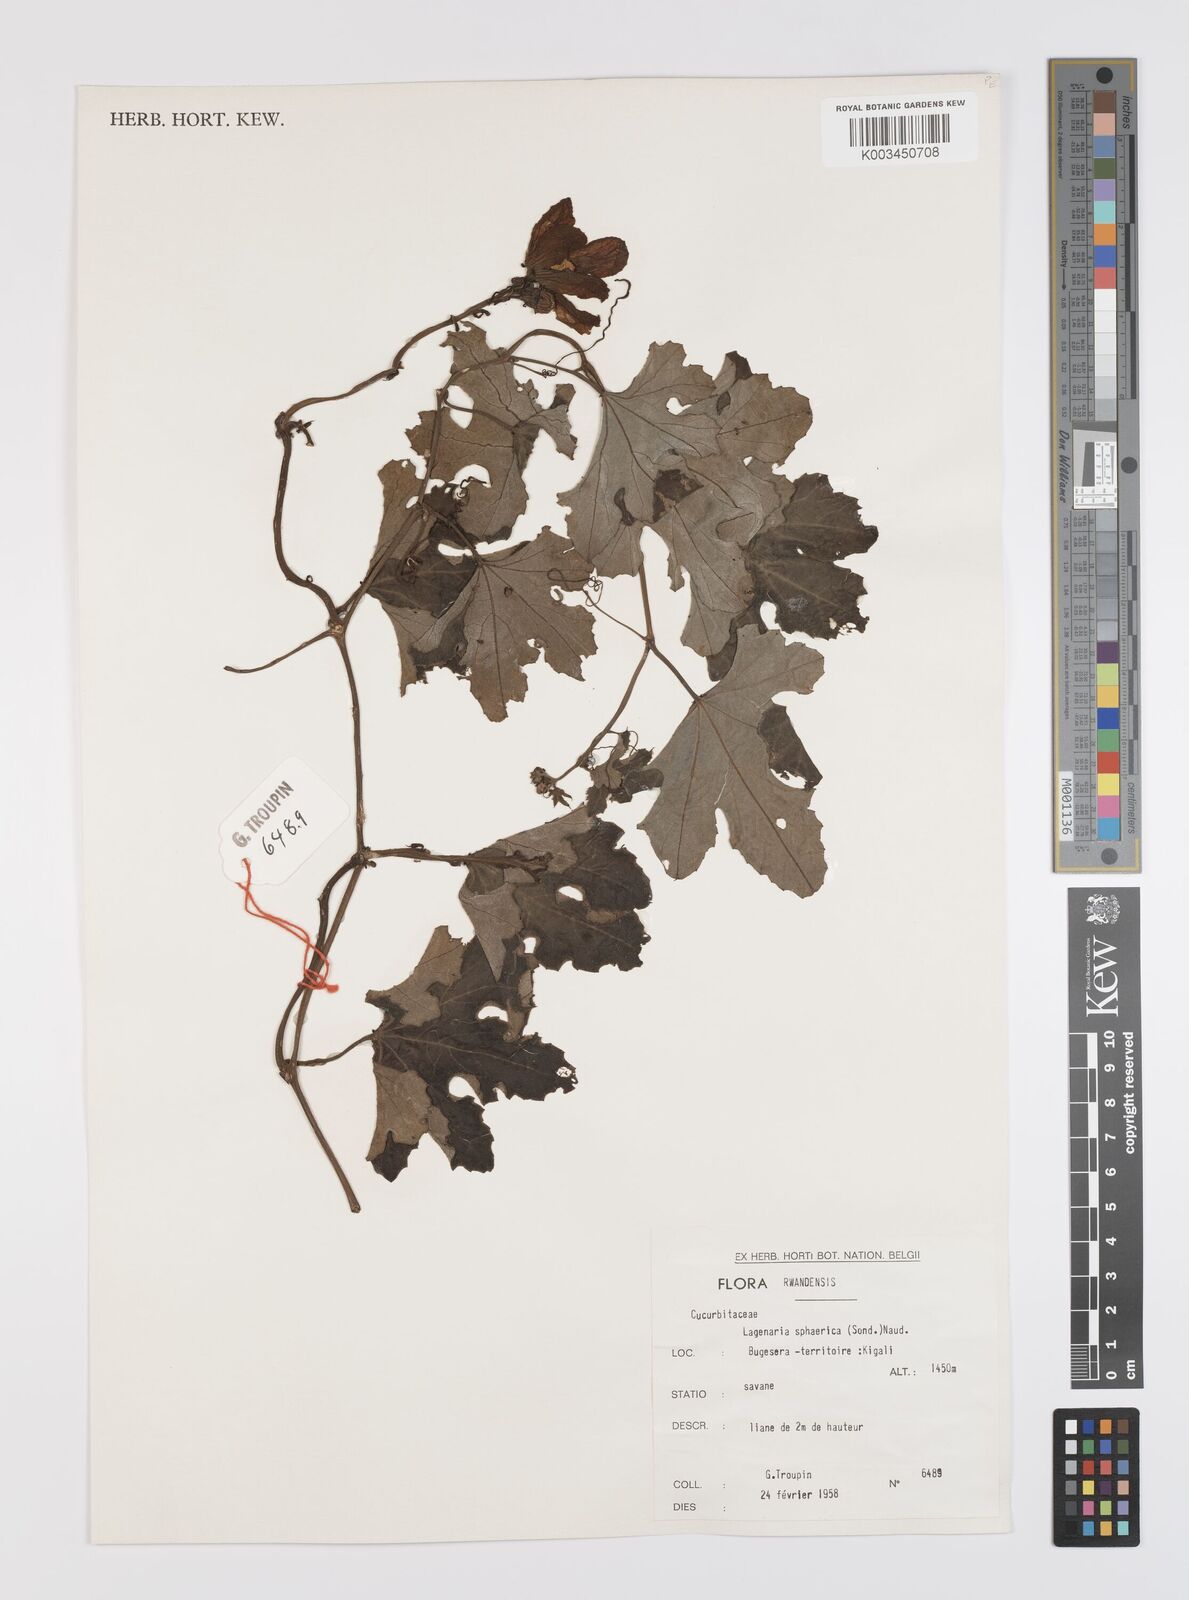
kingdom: Plantae
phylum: Tracheophyta
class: Magnoliopsida
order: Cucurbitales
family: Cucurbitaceae
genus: Lagenaria
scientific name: Lagenaria sphaerica
